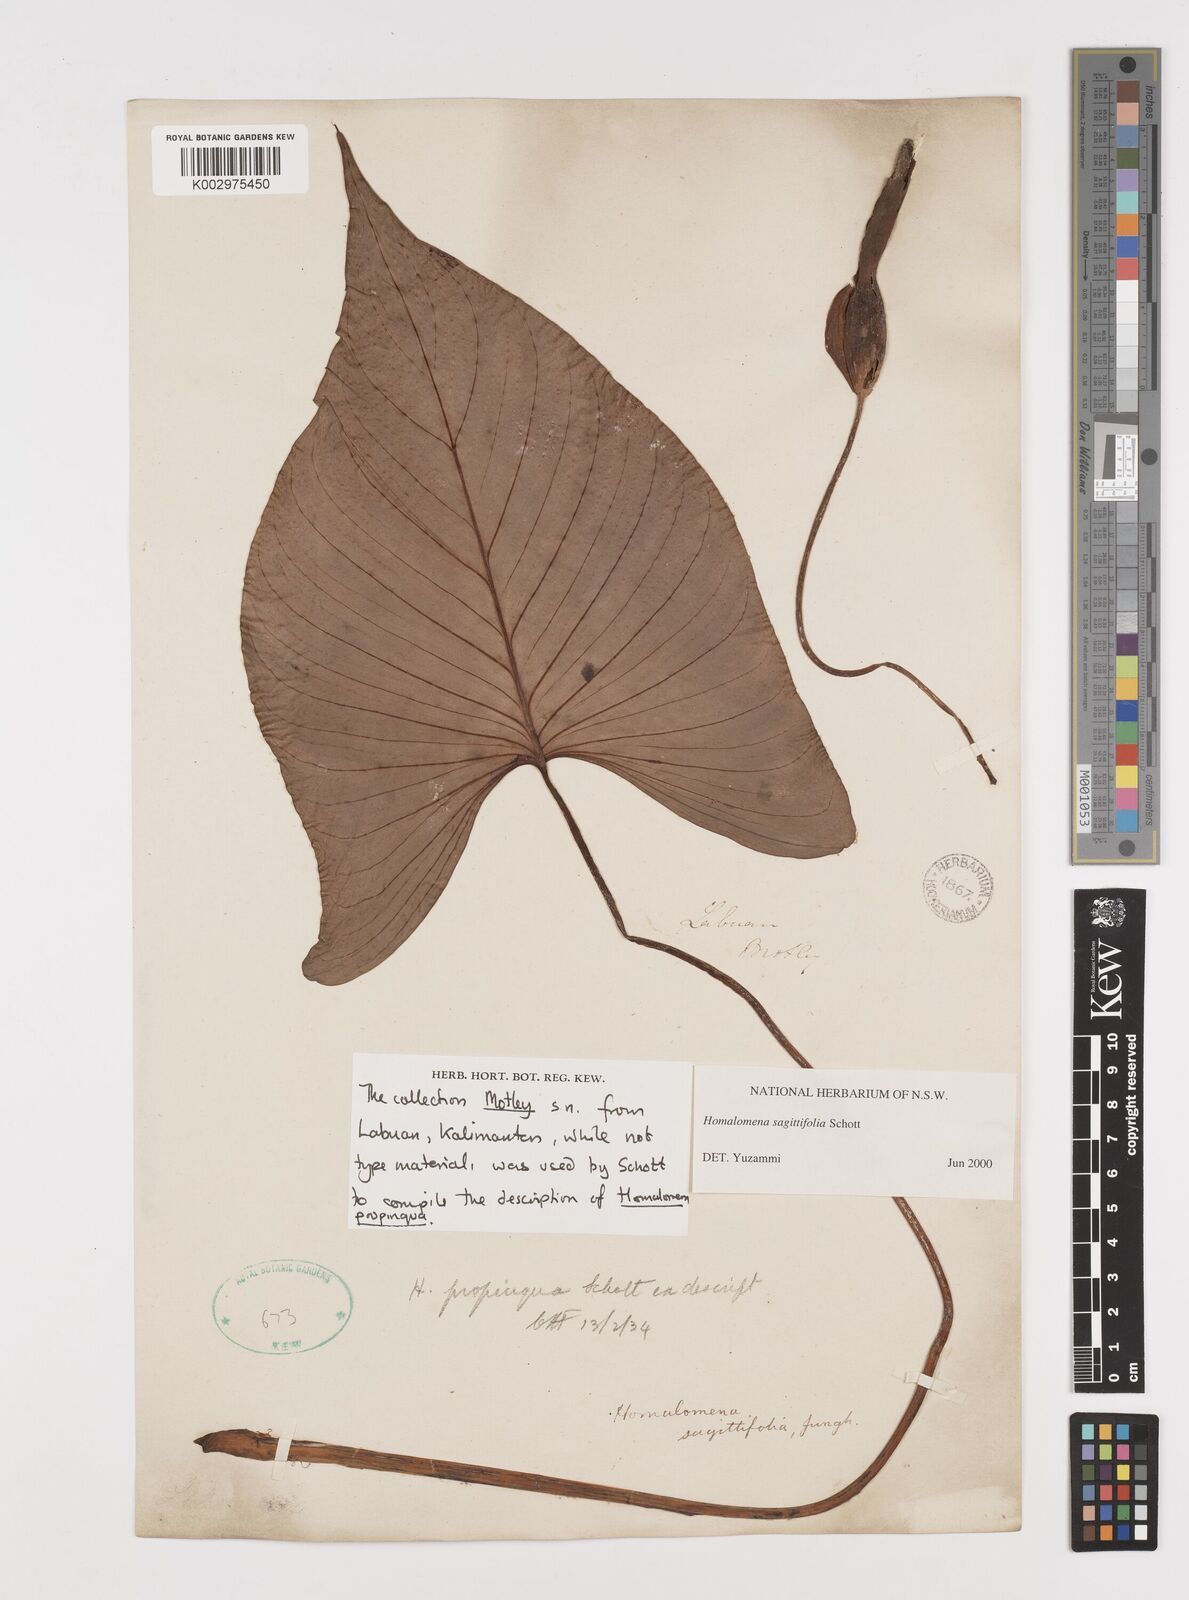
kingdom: Plantae
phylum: Tracheophyta
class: Liliopsida
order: Alismatales
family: Araceae
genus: Homalomena
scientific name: Homalomena humilis
